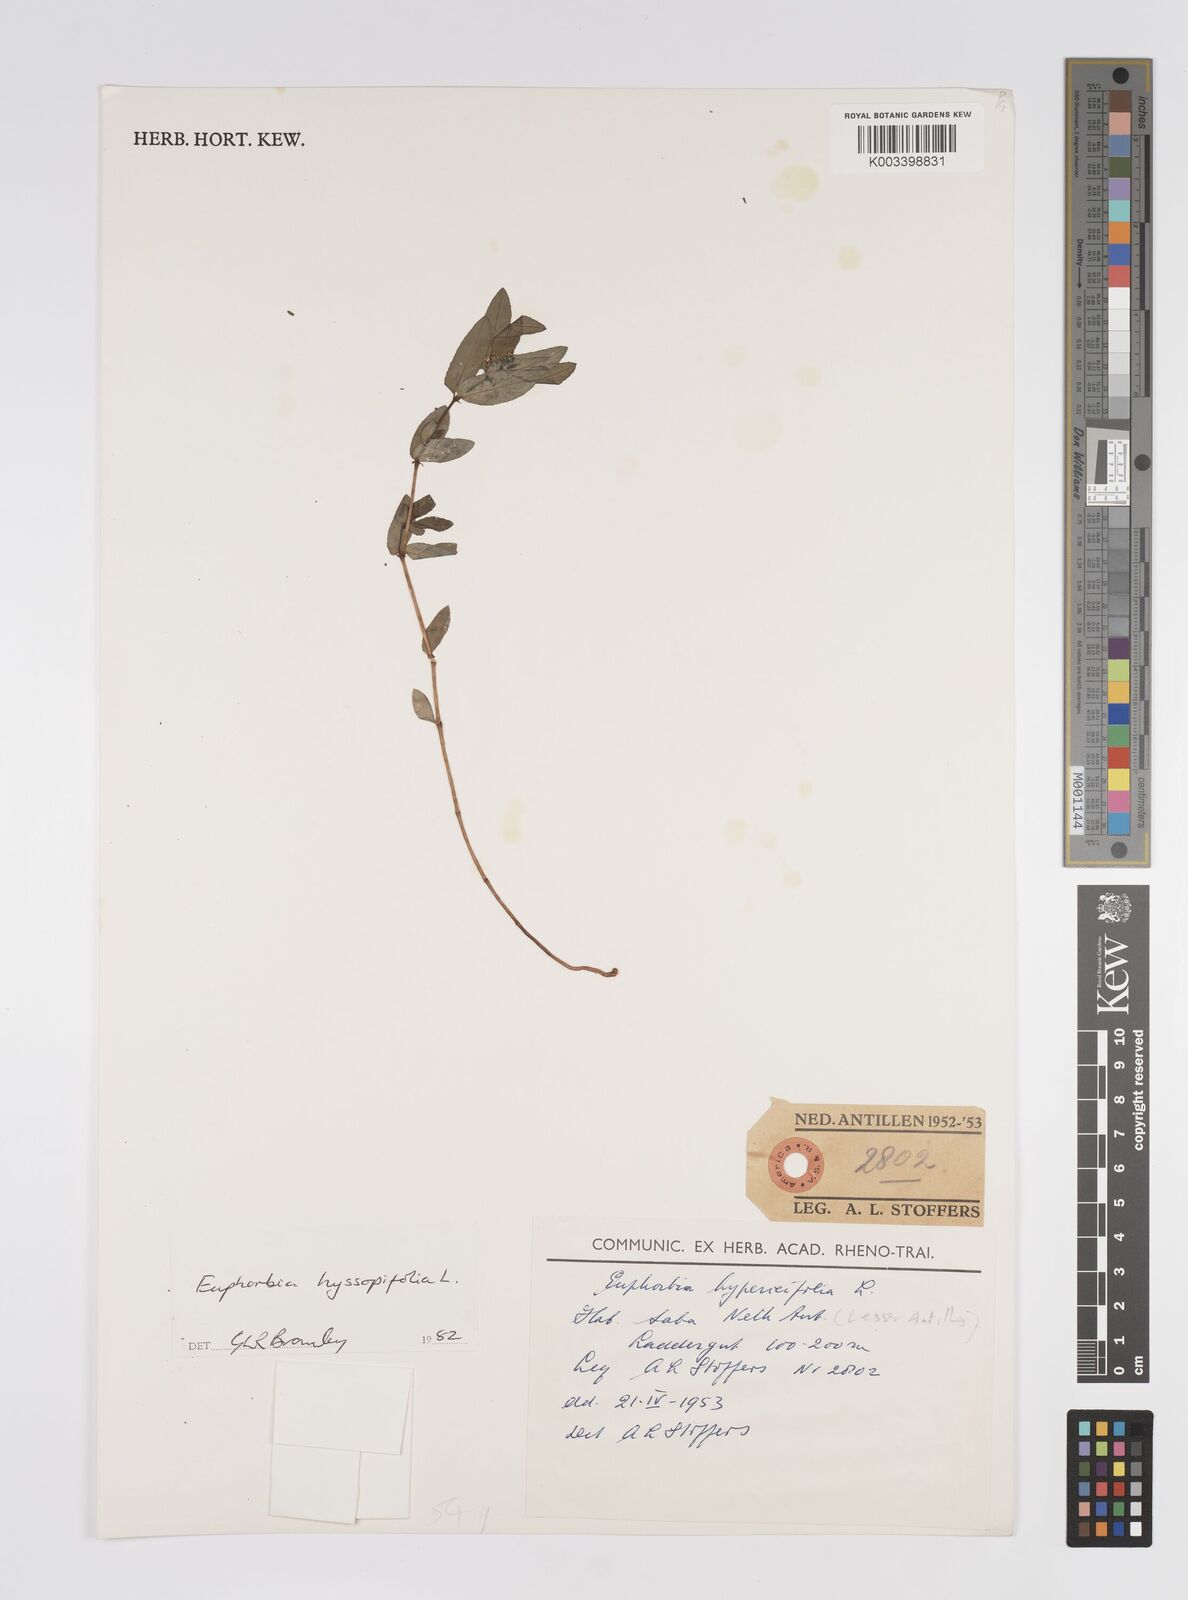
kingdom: Plantae
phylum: Tracheophyta
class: Magnoliopsida
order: Malpighiales
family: Euphorbiaceae
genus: Euphorbia
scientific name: Euphorbia hyssopifolia
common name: Hyssopleaf sandmat
